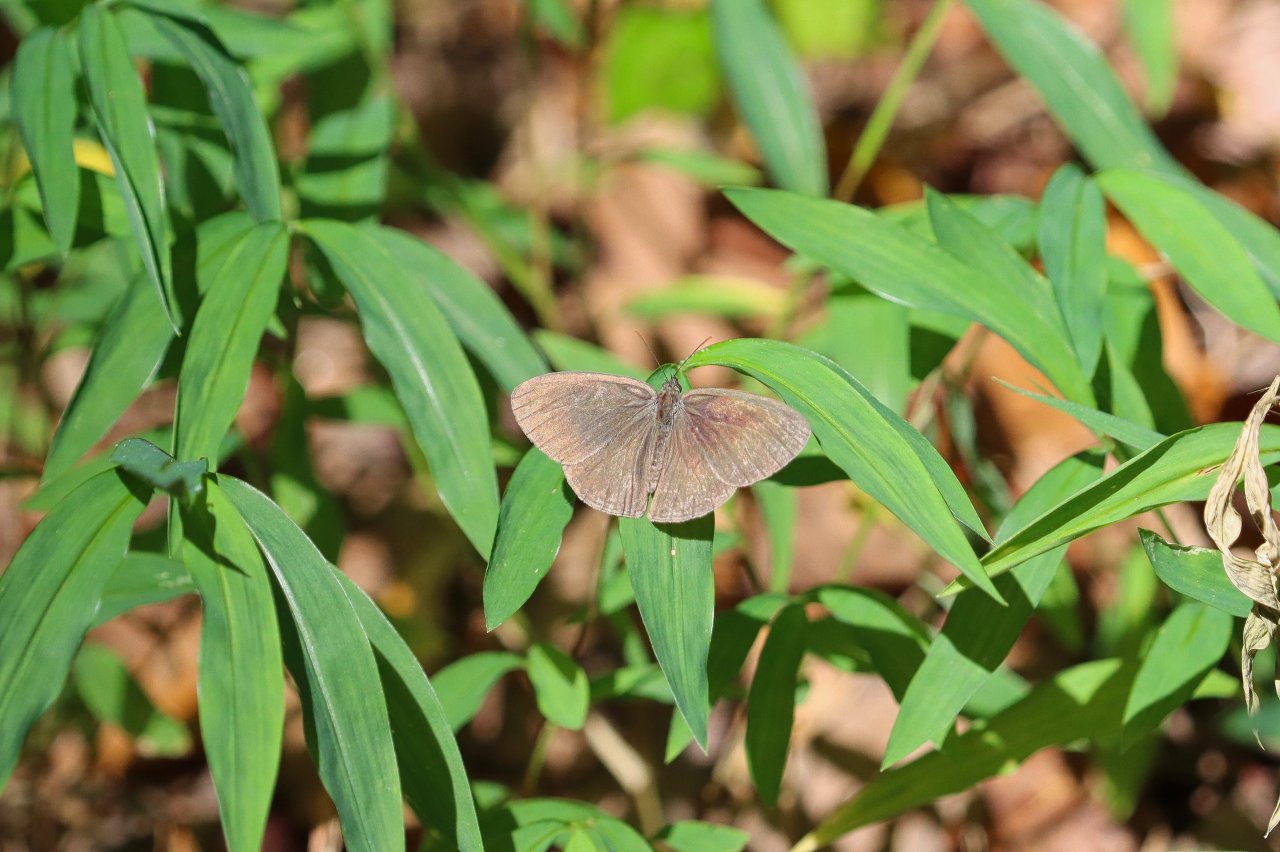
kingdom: Animalia
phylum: Arthropoda
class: Insecta
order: Lepidoptera
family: Nymphalidae
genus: Hermeuptychia
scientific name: Hermeuptychia
